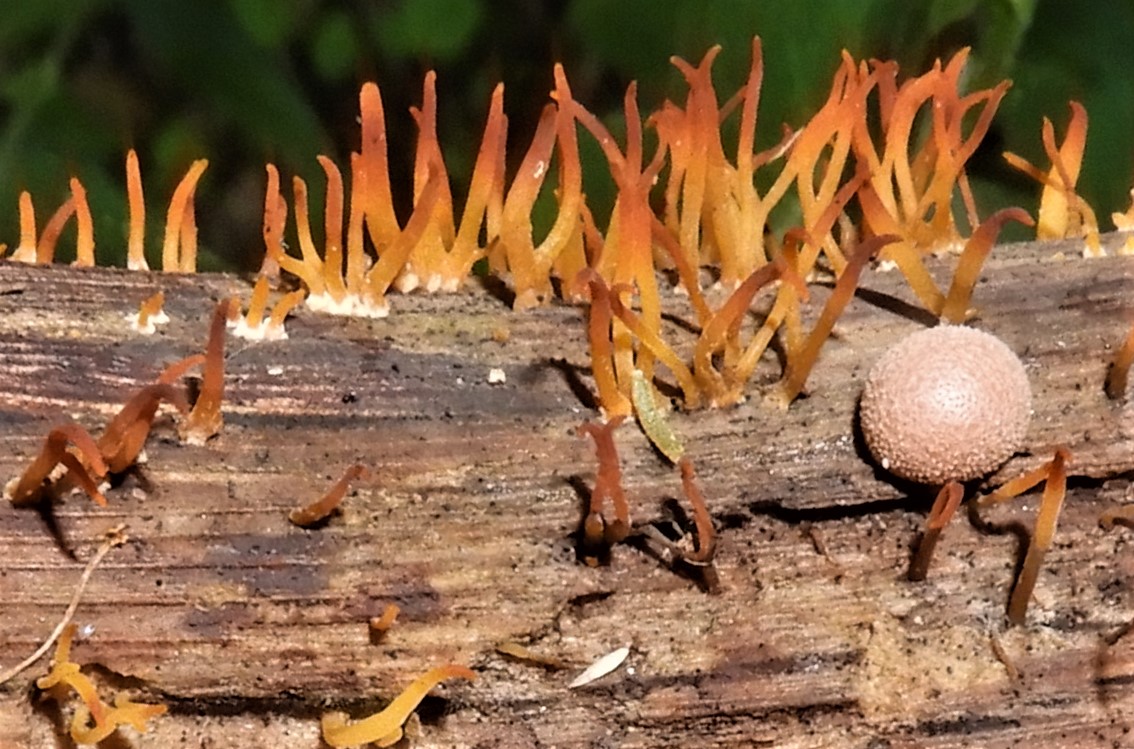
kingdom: Fungi
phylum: Basidiomycota
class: Dacrymycetes
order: Dacrymycetales
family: Dacrymycetaceae
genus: Calocera
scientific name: Calocera cornea
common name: liden guldgaffel
